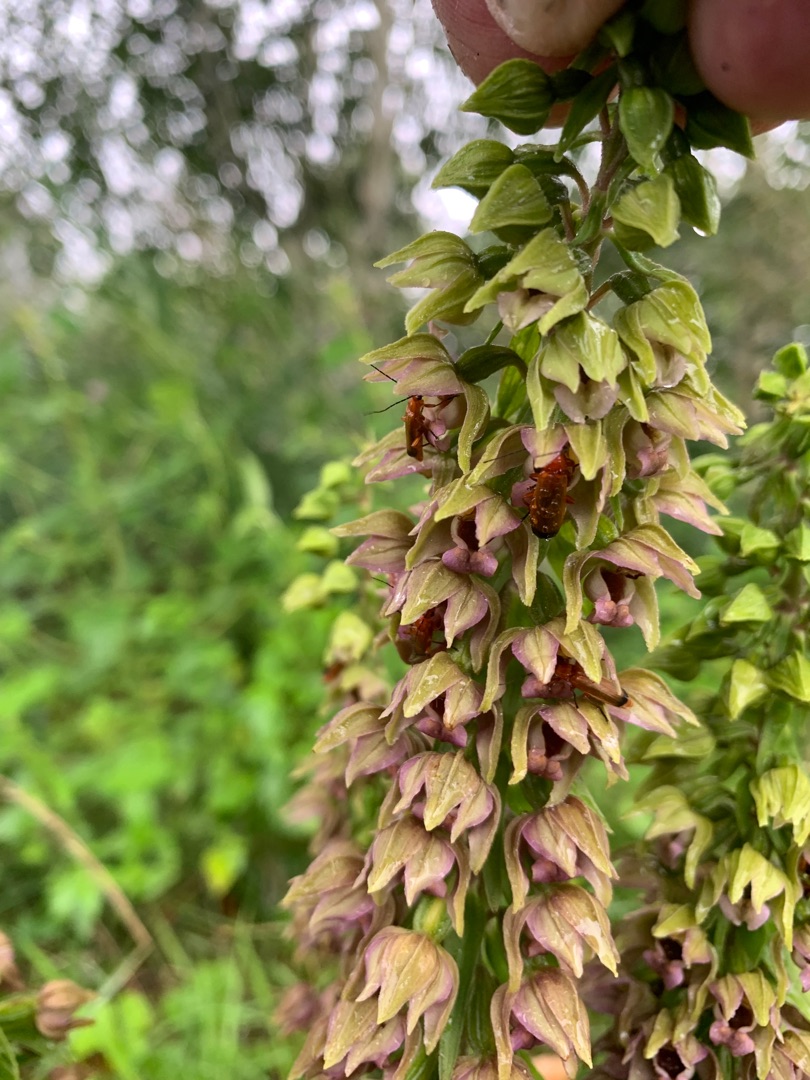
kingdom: Plantae
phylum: Tracheophyta
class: Liliopsida
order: Asparagales
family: Orchidaceae
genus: Epipactis
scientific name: Epipactis helleborine
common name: Skov-hullæbe
